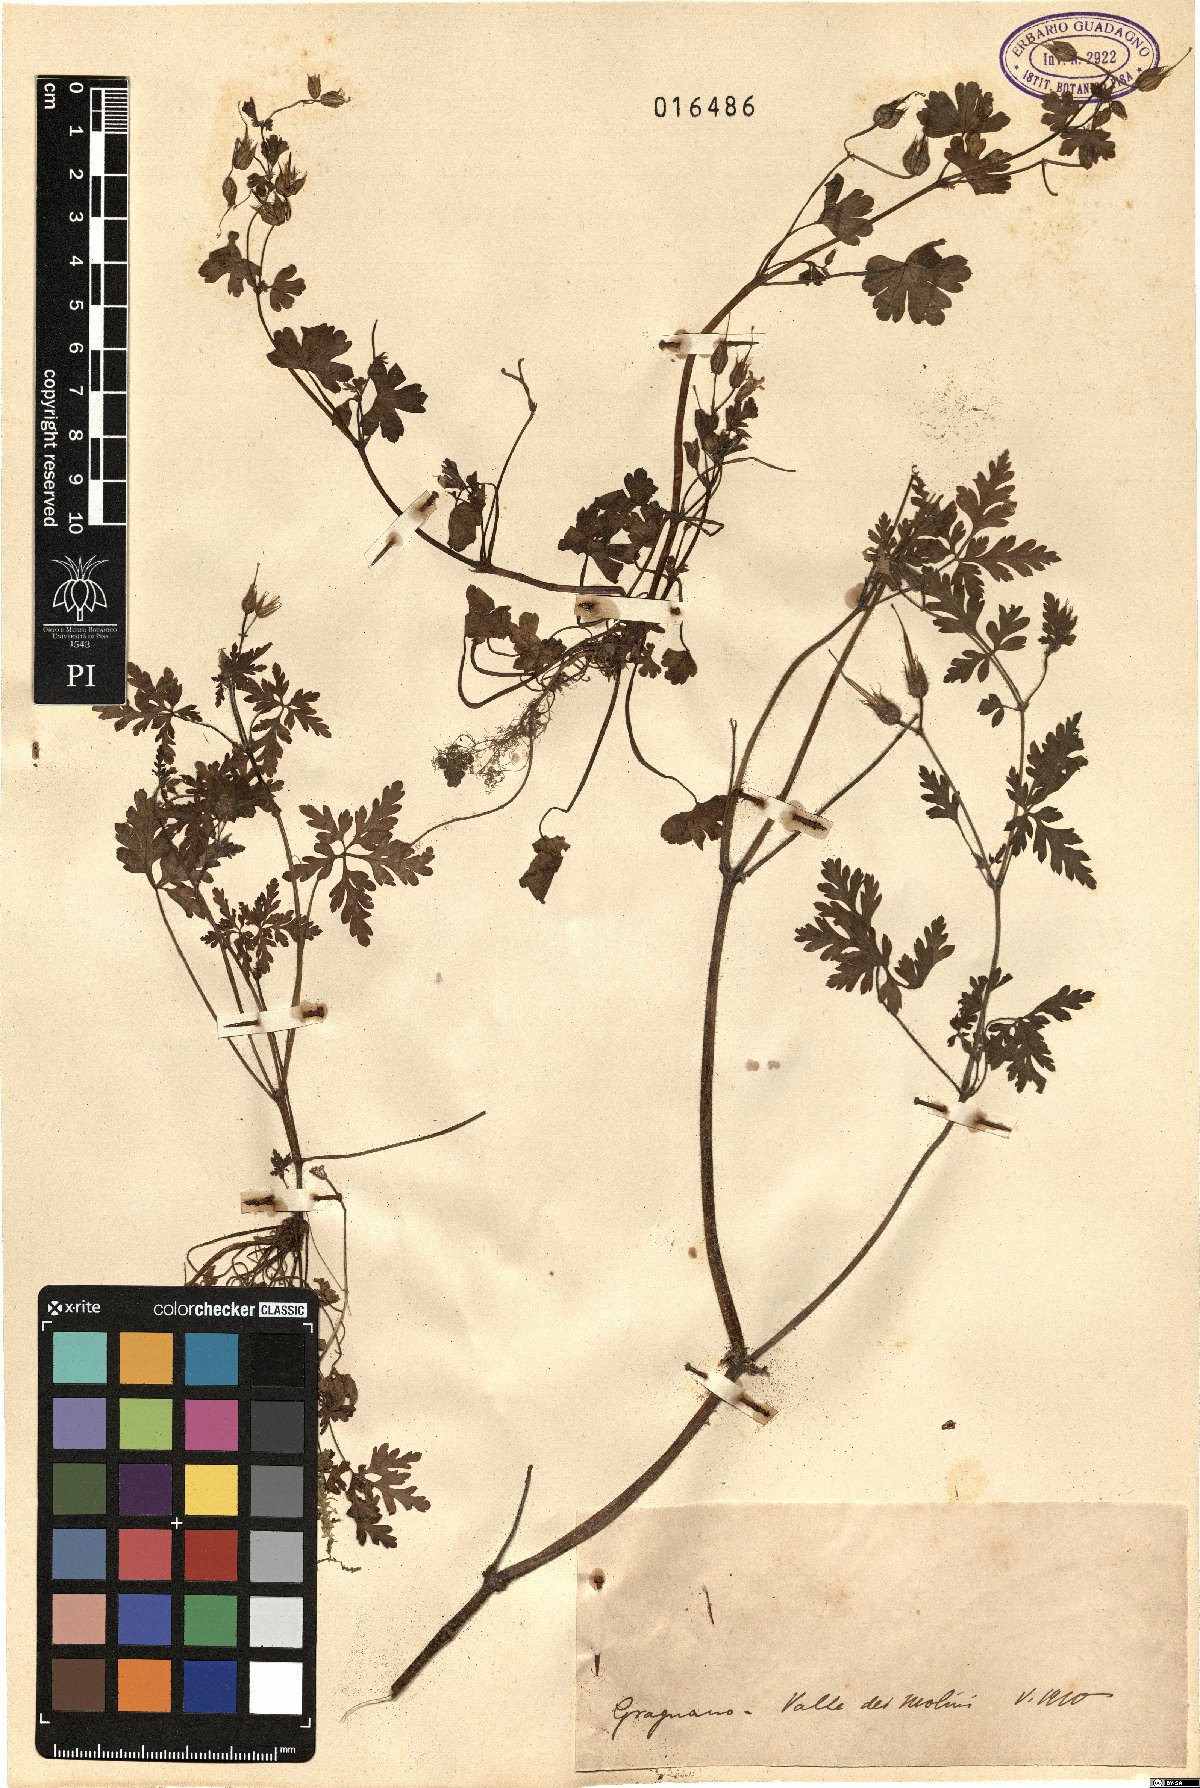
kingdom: Plantae
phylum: Tracheophyta
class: Magnoliopsida
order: Geraniales
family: Geraniaceae
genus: Geranium
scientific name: Geranium
